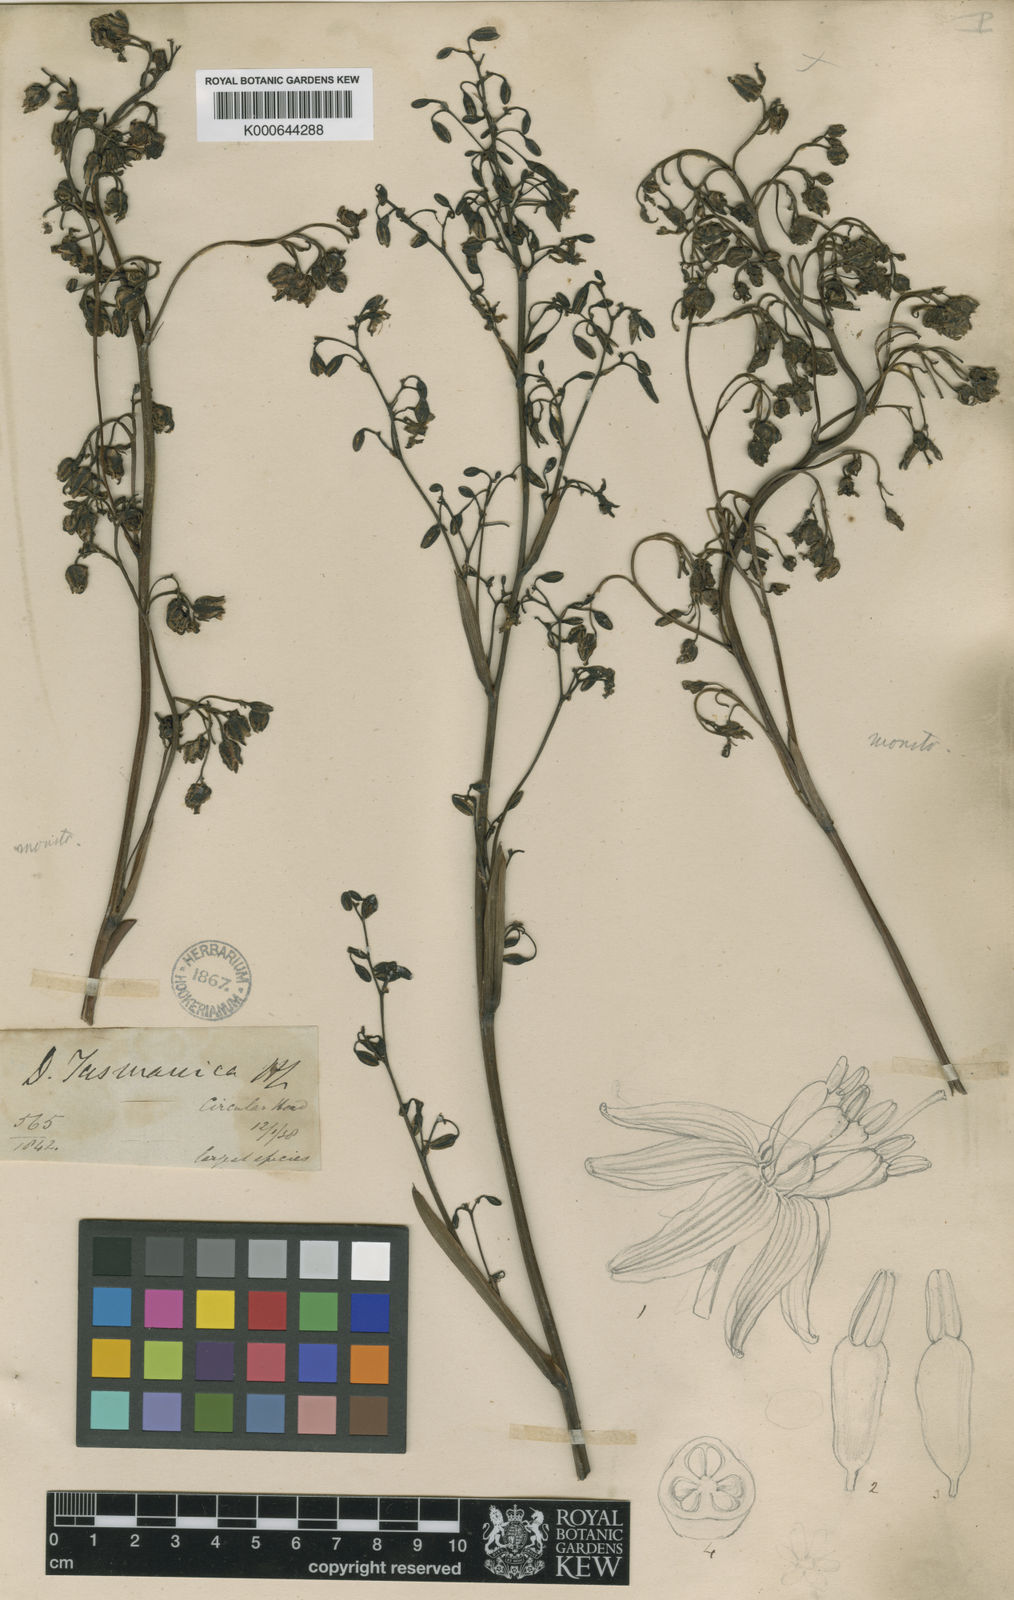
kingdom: Plantae
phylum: Tracheophyta
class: Liliopsida
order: Asparagales
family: Asphodelaceae
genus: Dianella
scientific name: Dianella tasmanica
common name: Tasman flax-lily
